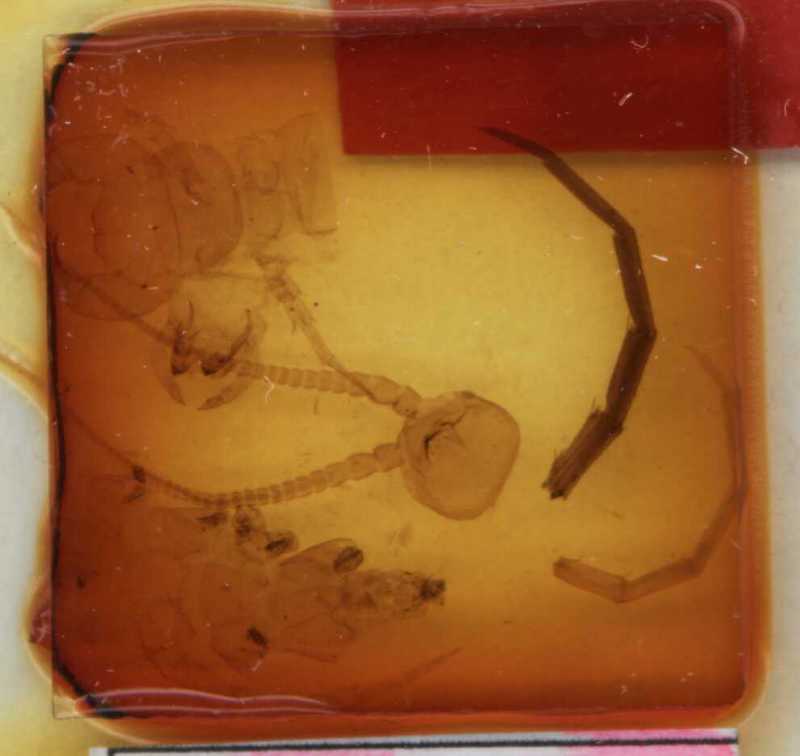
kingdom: Animalia
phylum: Arthropoda
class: Chilopoda
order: Lithobiomorpha
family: Lithobiidae
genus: Lithobius
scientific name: Lithobius erythrocephalus
